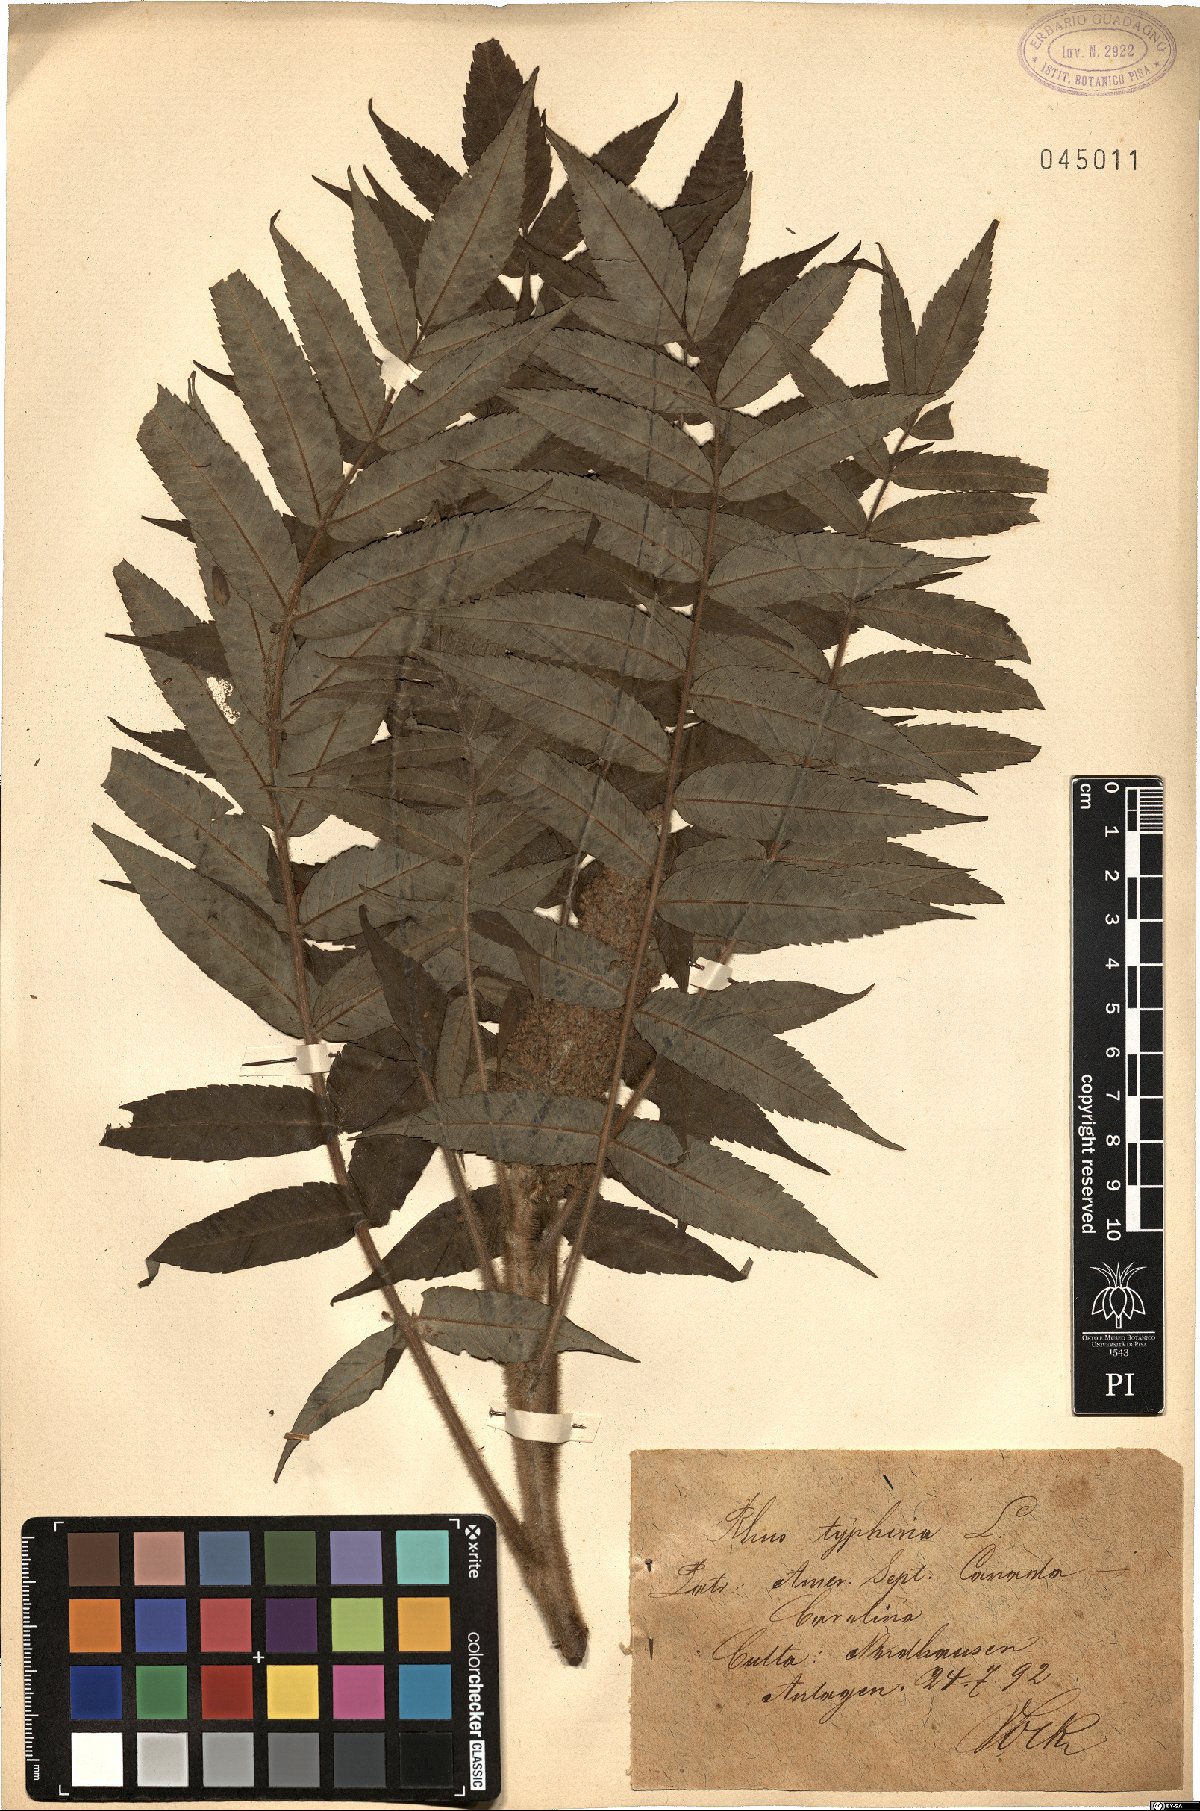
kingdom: Plantae
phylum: Tracheophyta
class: Magnoliopsida
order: Sapindales
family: Anacardiaceae
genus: Rhus
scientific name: Rhus typhina
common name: Staghorn sumac
